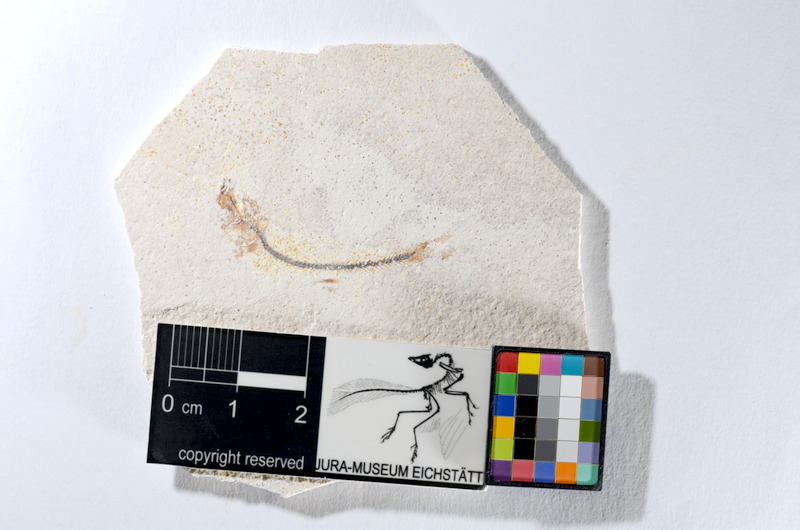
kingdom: Animalia
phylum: Chordata
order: Salmoniformes
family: Orthogonikleithridae
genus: Orthogonikleithrus
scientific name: Orthogonikleithrus hoelli
